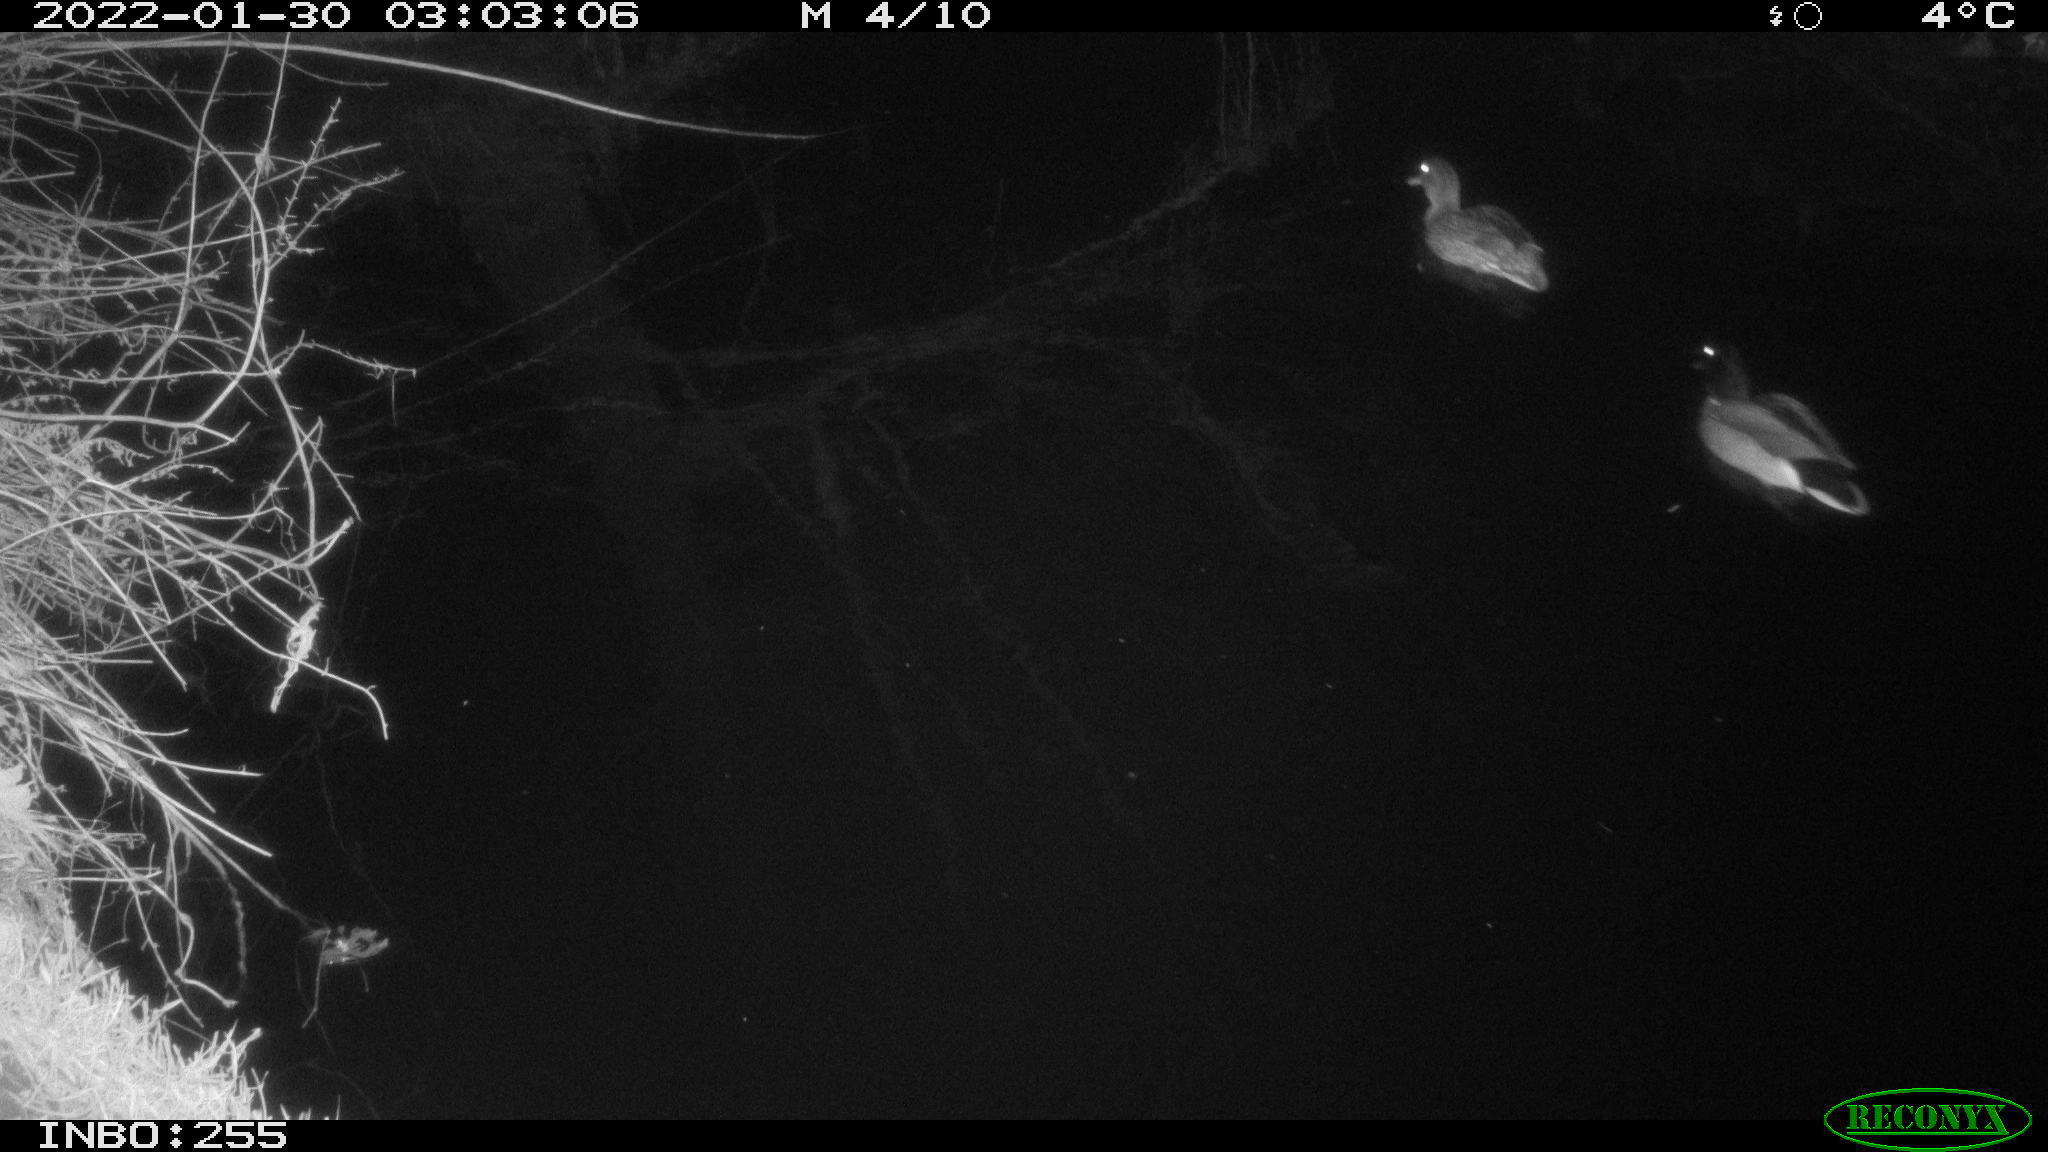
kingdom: Animalia
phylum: Chordata
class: Aves
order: Anseriformes
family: Anatidae
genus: Anas
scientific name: Anas
